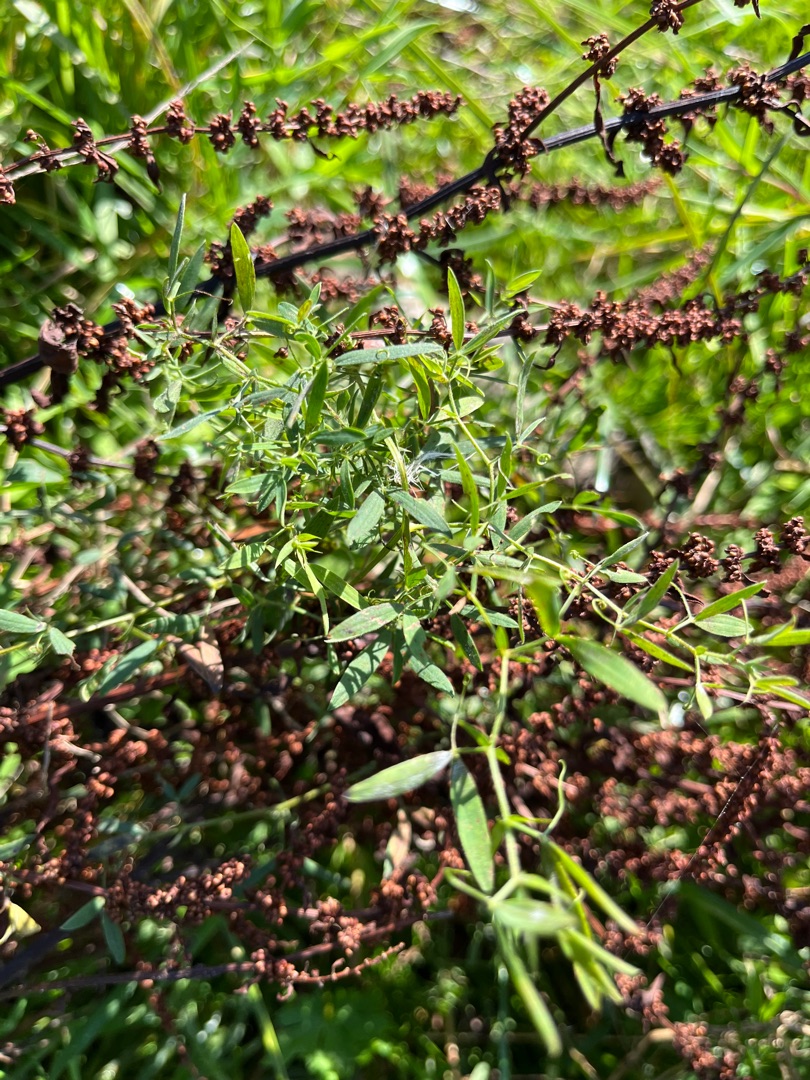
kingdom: Plantae
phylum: Tracheophyta
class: Magnoliopsida
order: Fabales
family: Fabaceae
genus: Lathyrus
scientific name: Lathyrus pratensis
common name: Gul fladbælg
